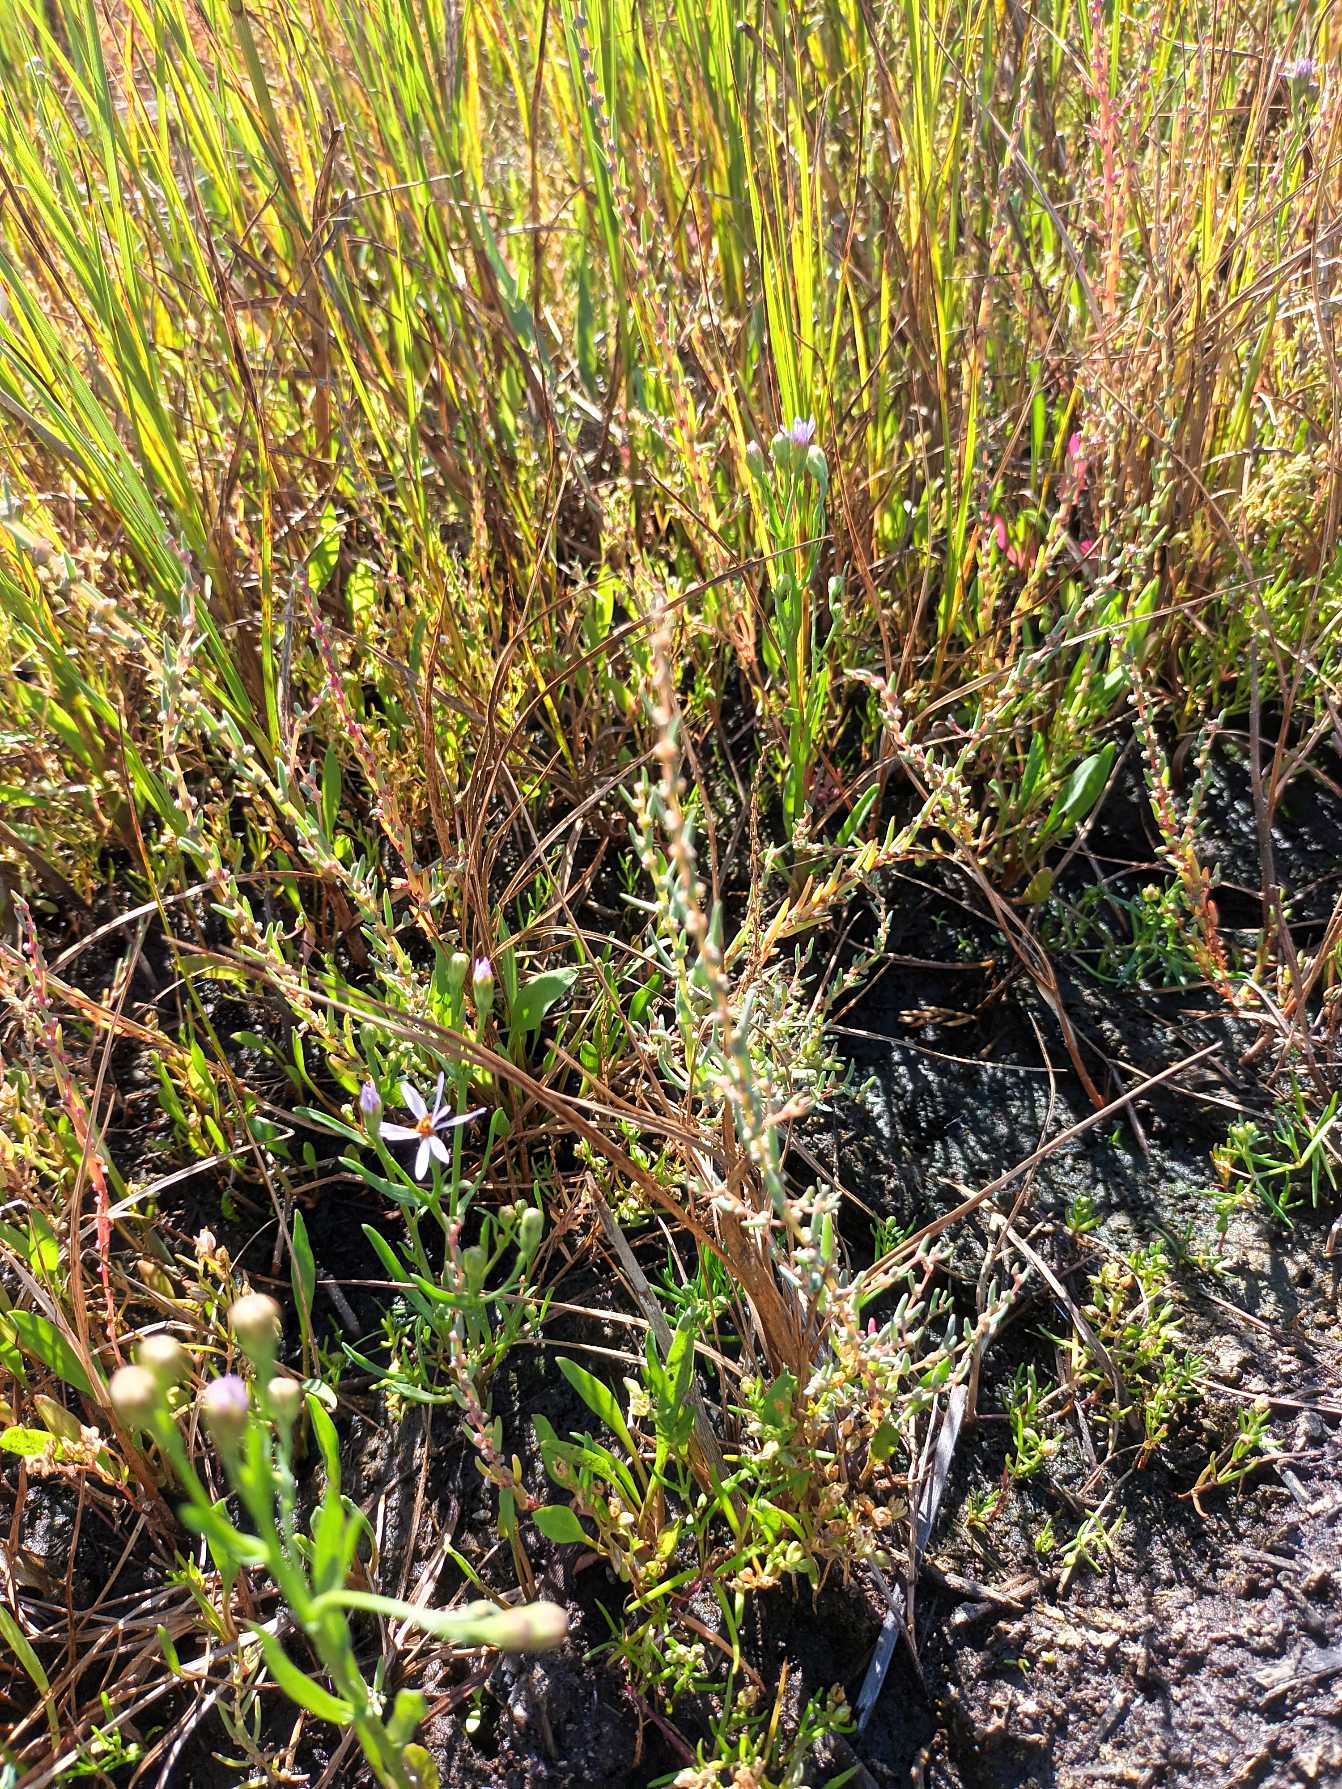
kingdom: Plantae
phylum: Tracheophyta
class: Magnoliopsida
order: Caryophyllales
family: Amaranthaceae
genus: Suaeda
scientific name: Suaeda maritima
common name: Strandgåsefod
